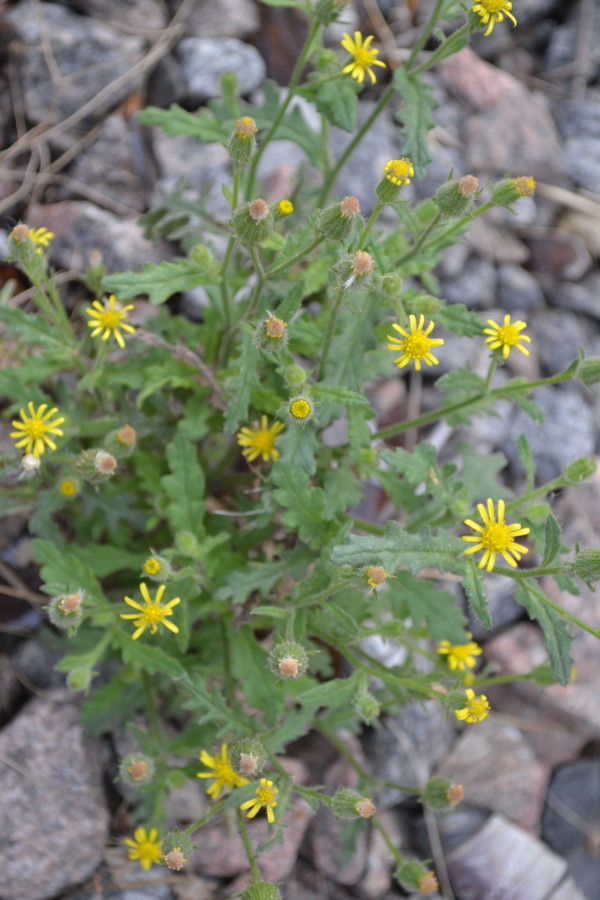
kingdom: Plantae
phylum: Tracheophyta
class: Magnoliopsida
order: Asterales
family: Asteraceae
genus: Senecio
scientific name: Senecio viscosus
